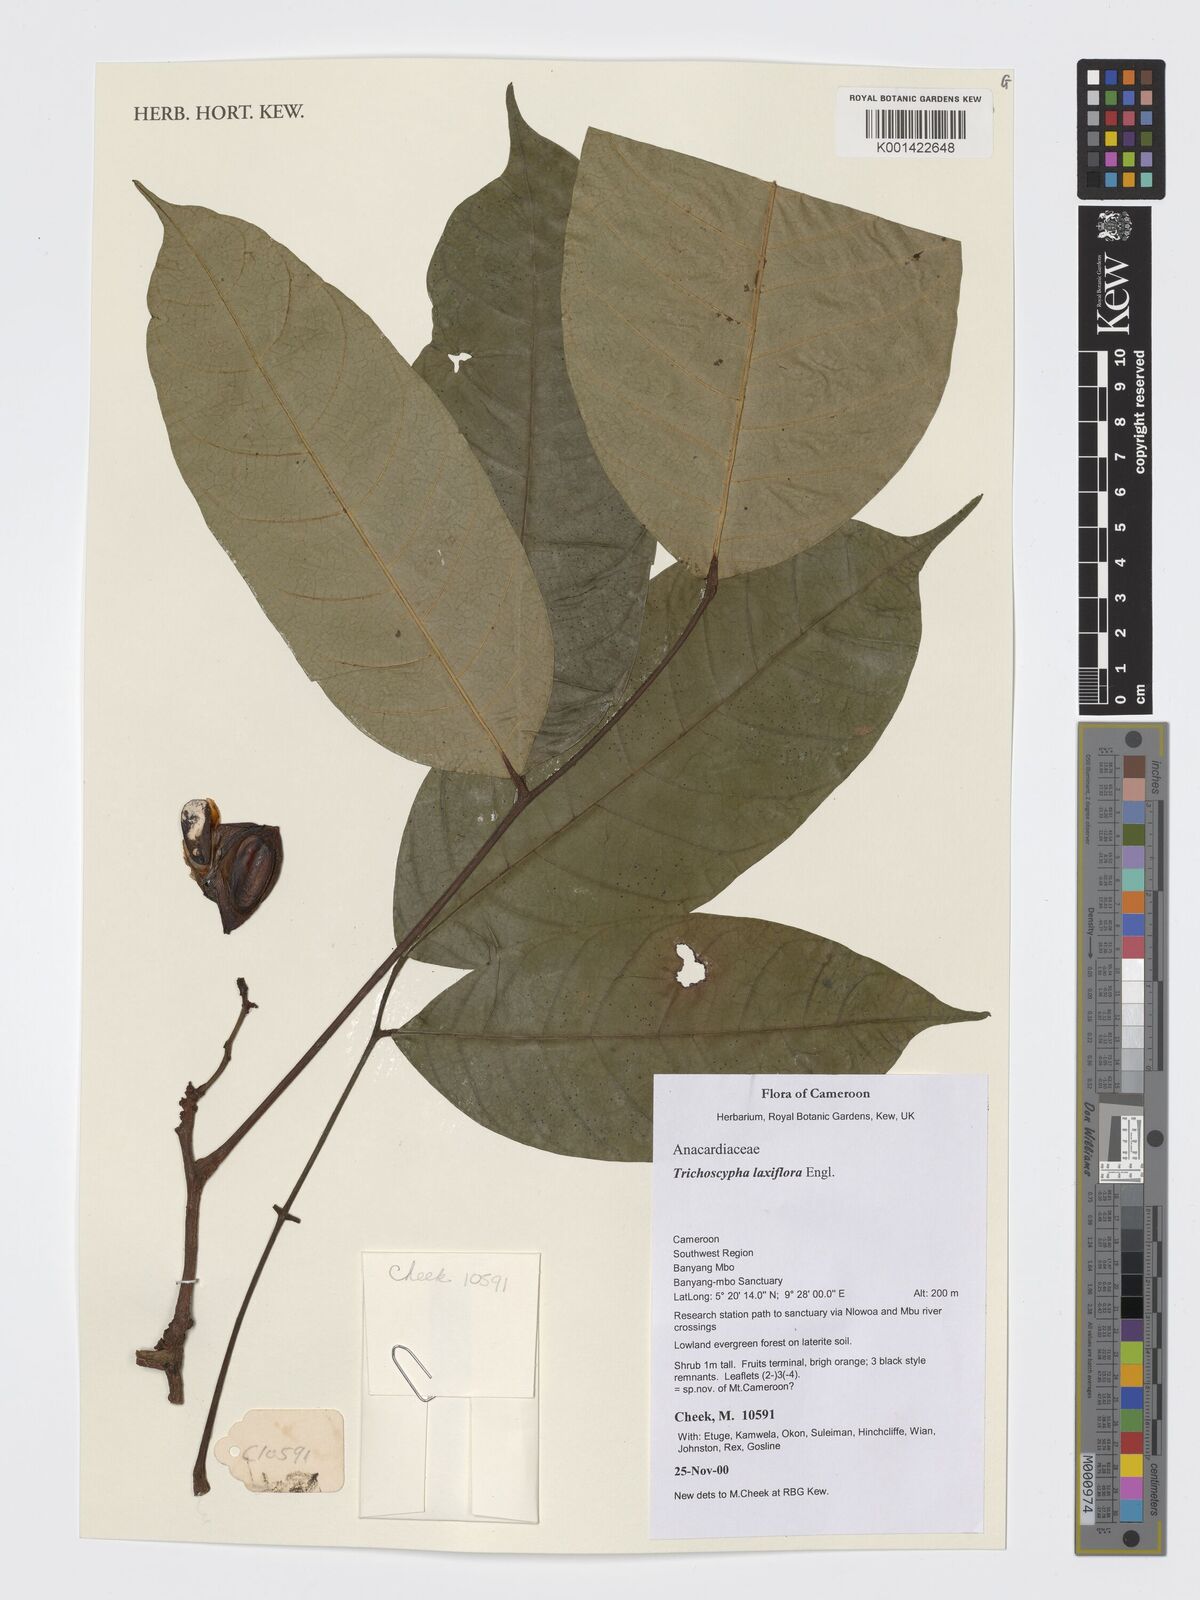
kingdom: Plantae
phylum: Tracheophyta
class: Magnoliopsida
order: Sapindales
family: Anacardiaceae
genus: Trichoscypha
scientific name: Trichoscypha laxiflora
